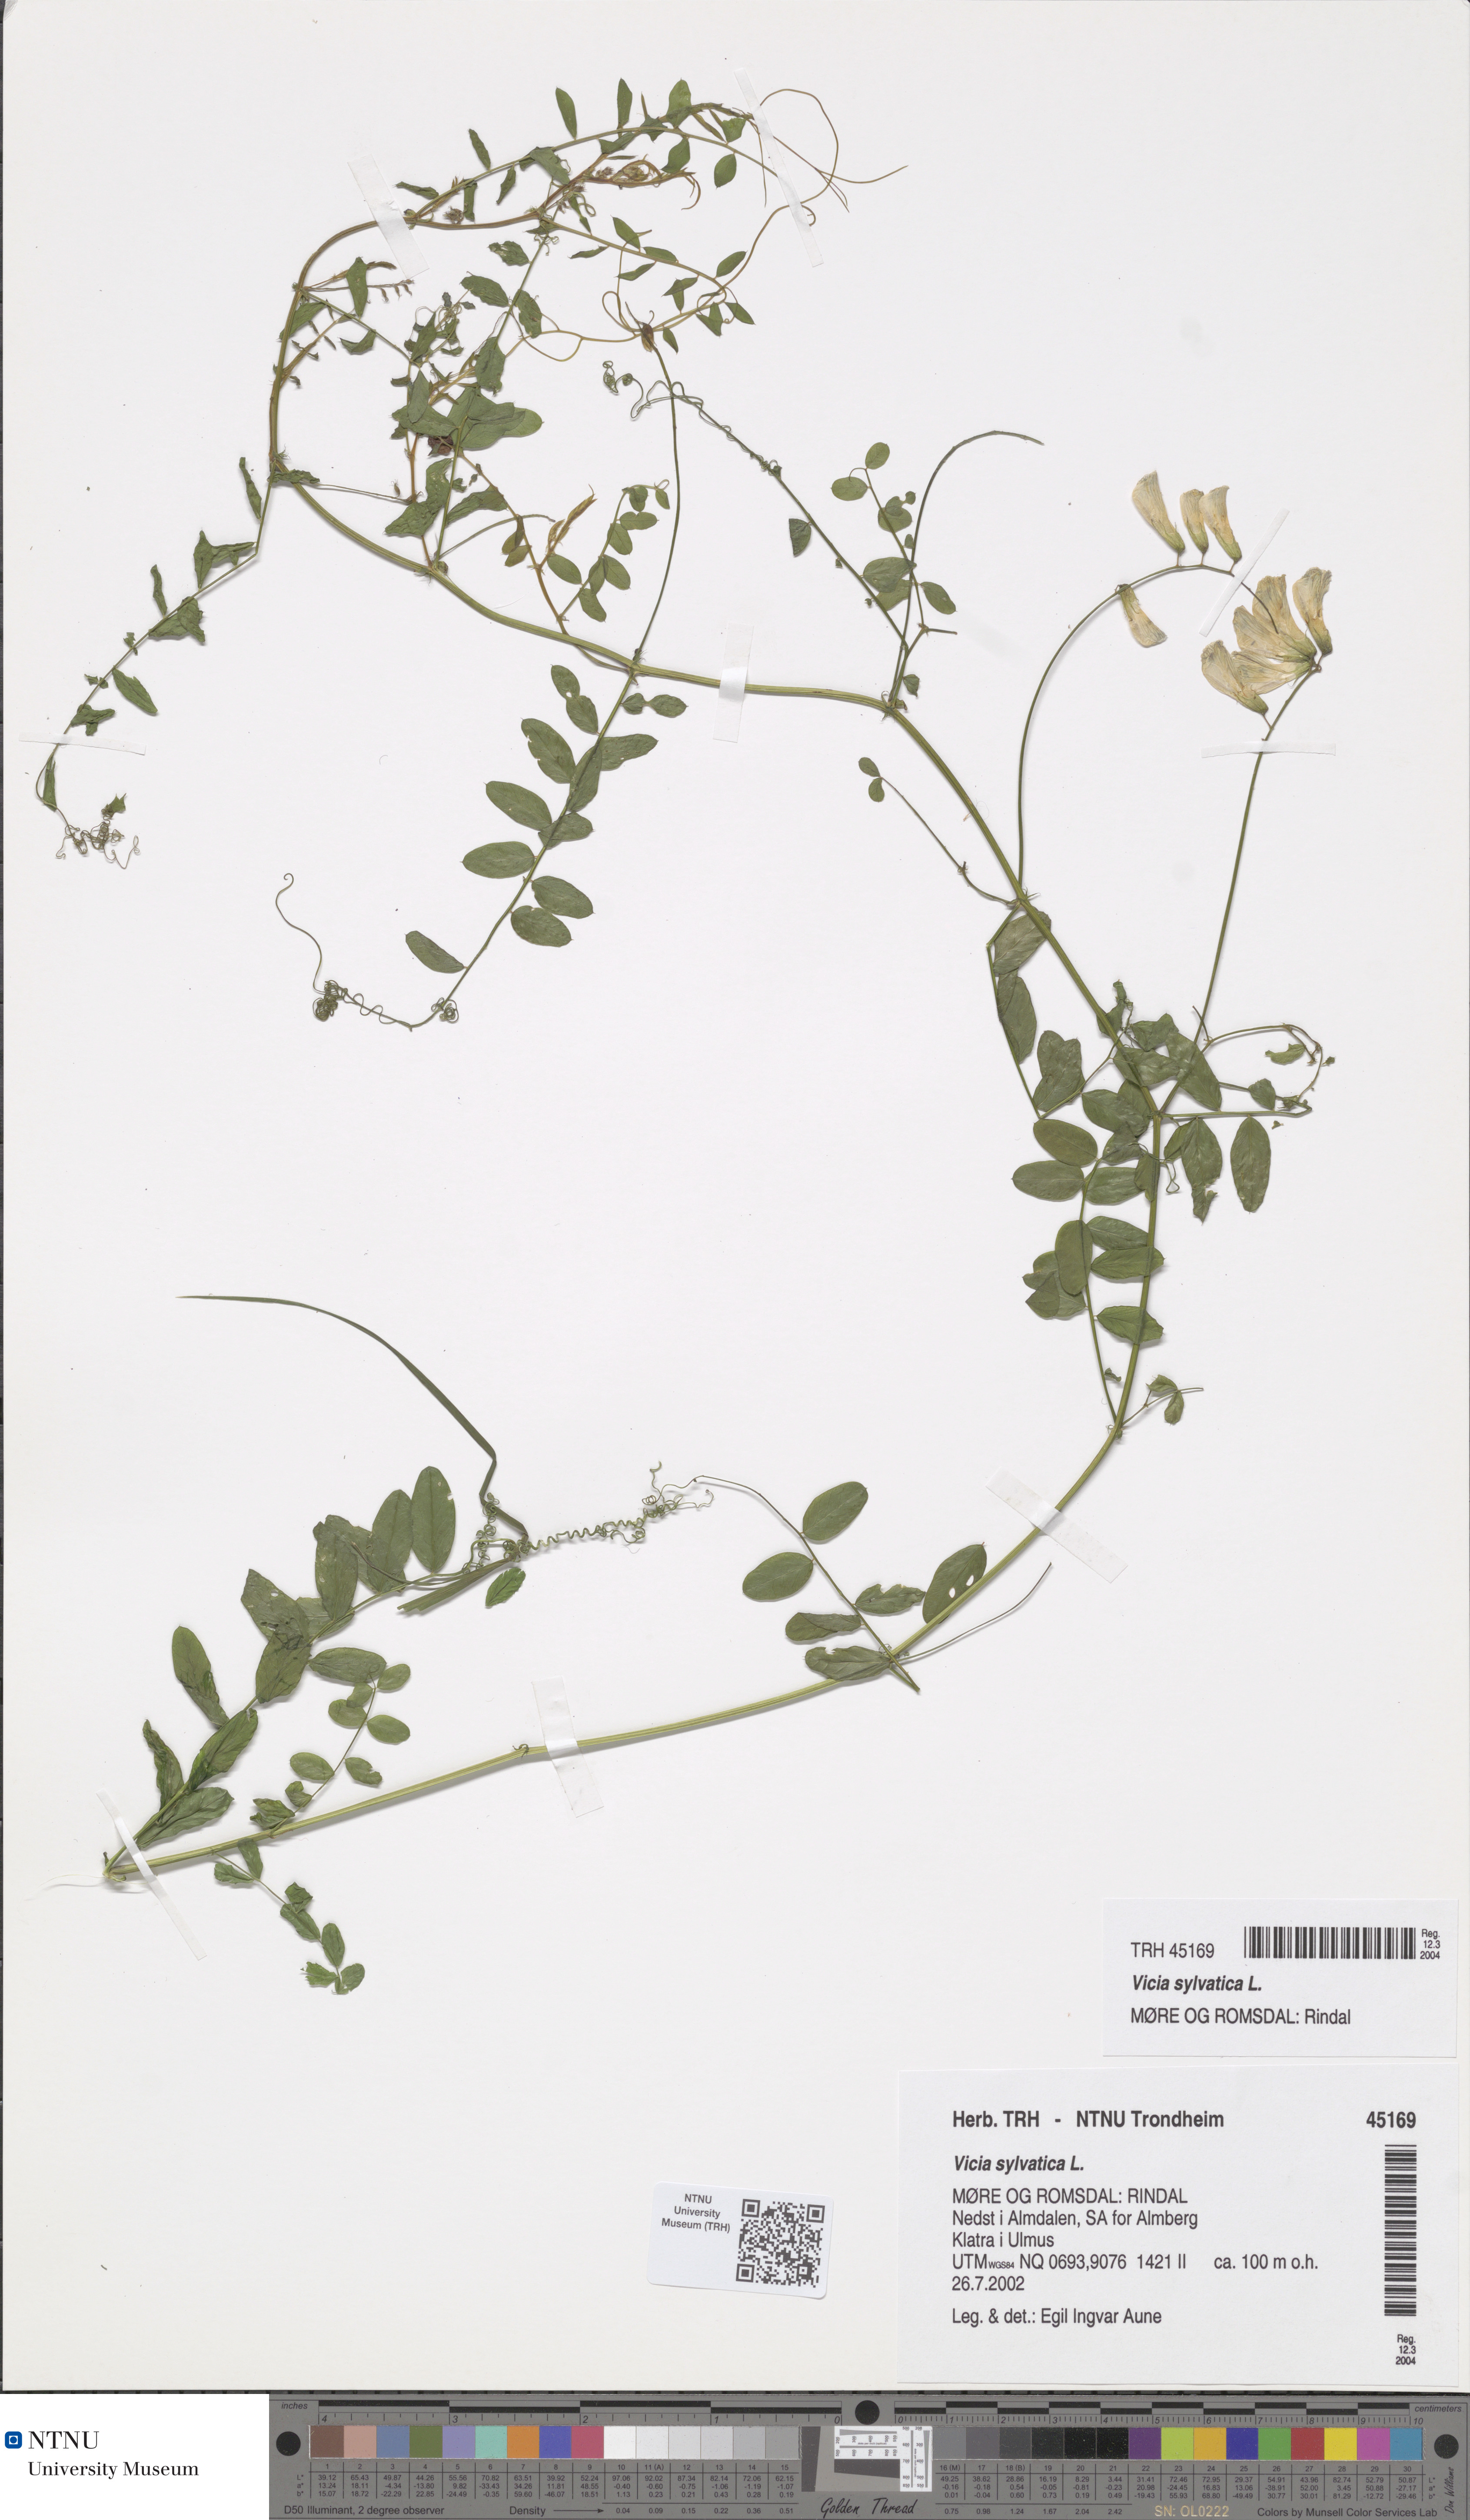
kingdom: Plantae
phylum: Tracheophyta
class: Magnoliopsida
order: Fabales
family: Fabaceae
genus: Vicia
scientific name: Vicia sylvatica
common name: Wood vetch
